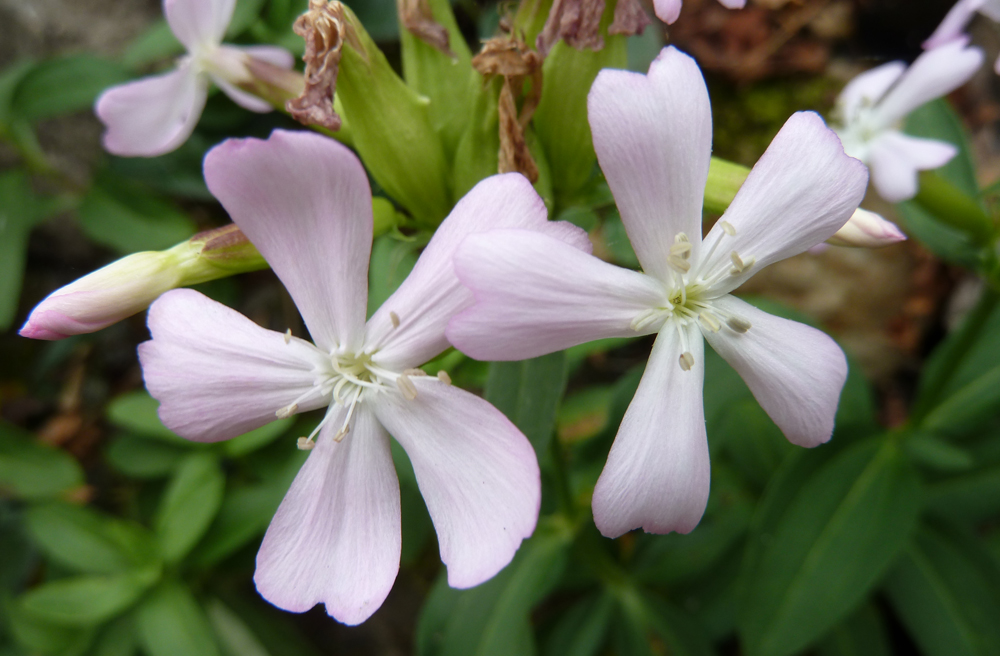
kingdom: Plantae
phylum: Tracheophyta
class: Magnoliopsida
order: Caryophyllales
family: Caryophyllaceae
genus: Saponaria
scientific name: Saponaria officinalis
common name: Soapwort
